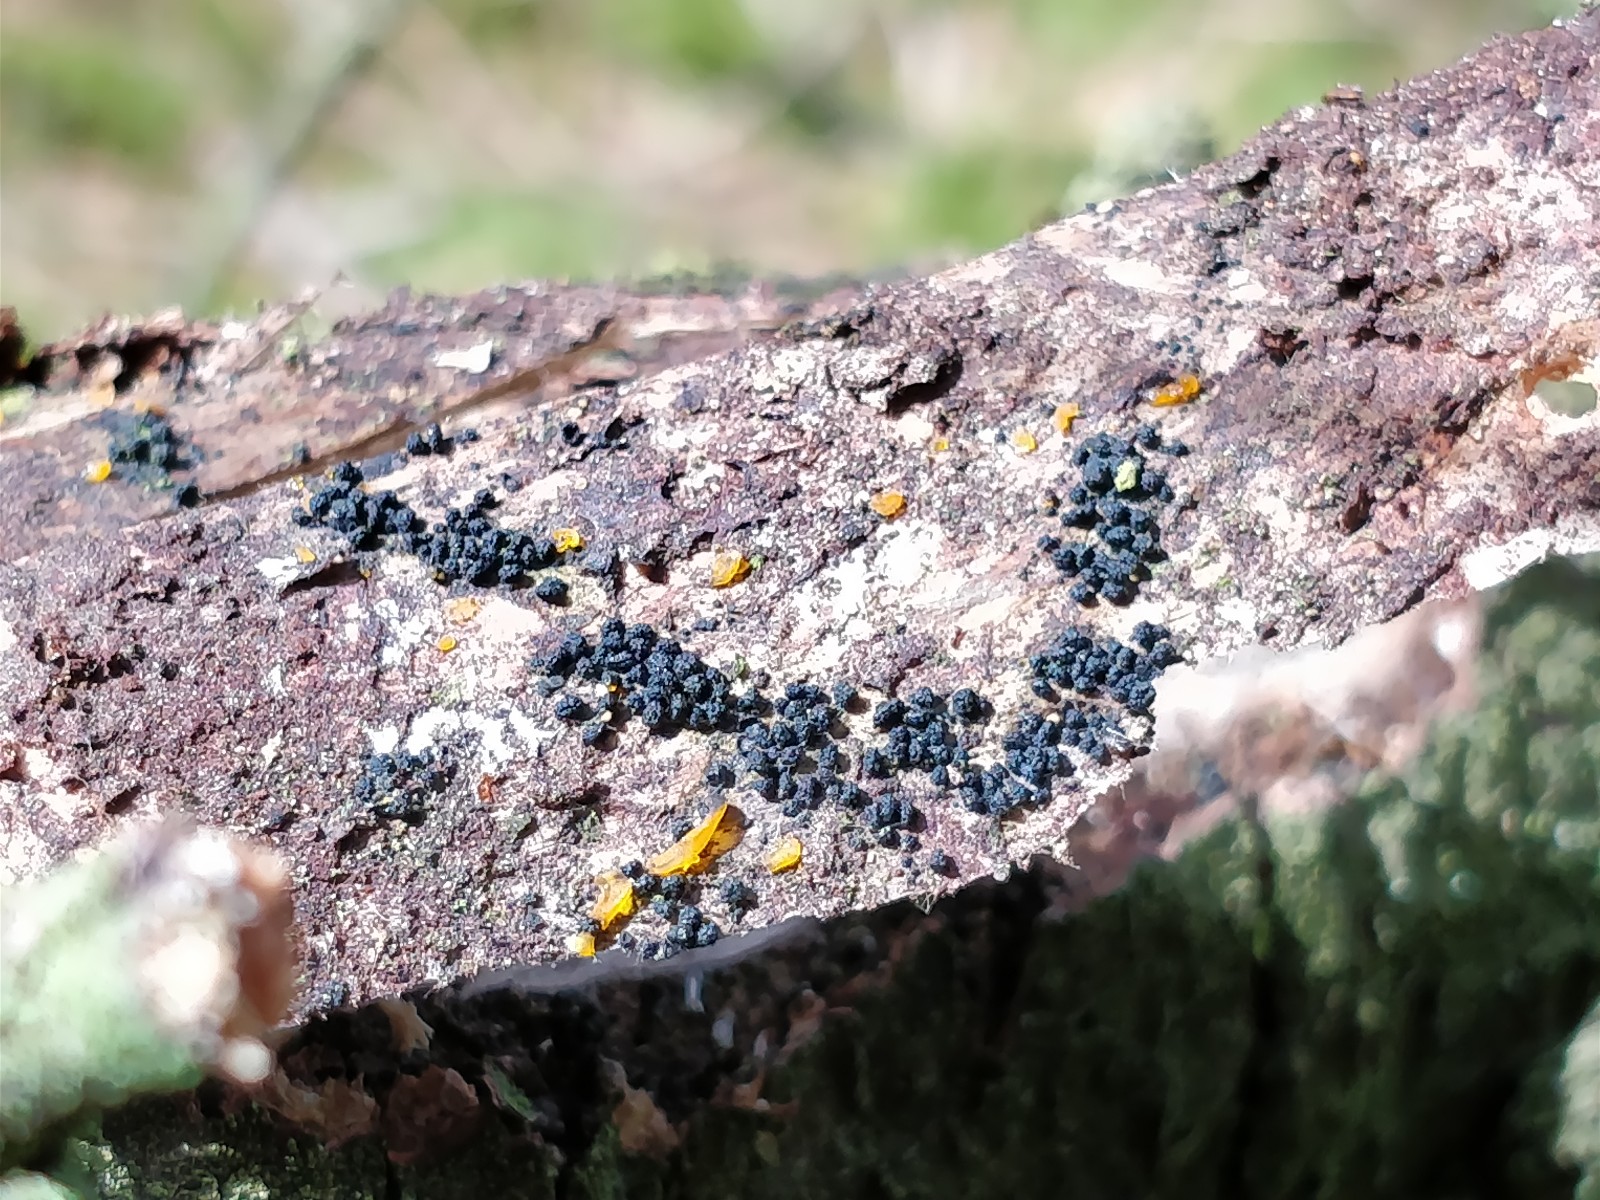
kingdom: Fungi
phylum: Ascomycota
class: Sordariomycetes
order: Coronophorales
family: Bertiaceae
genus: Bertia
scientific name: Bertia moriformis
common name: almindelig morbærkerne
